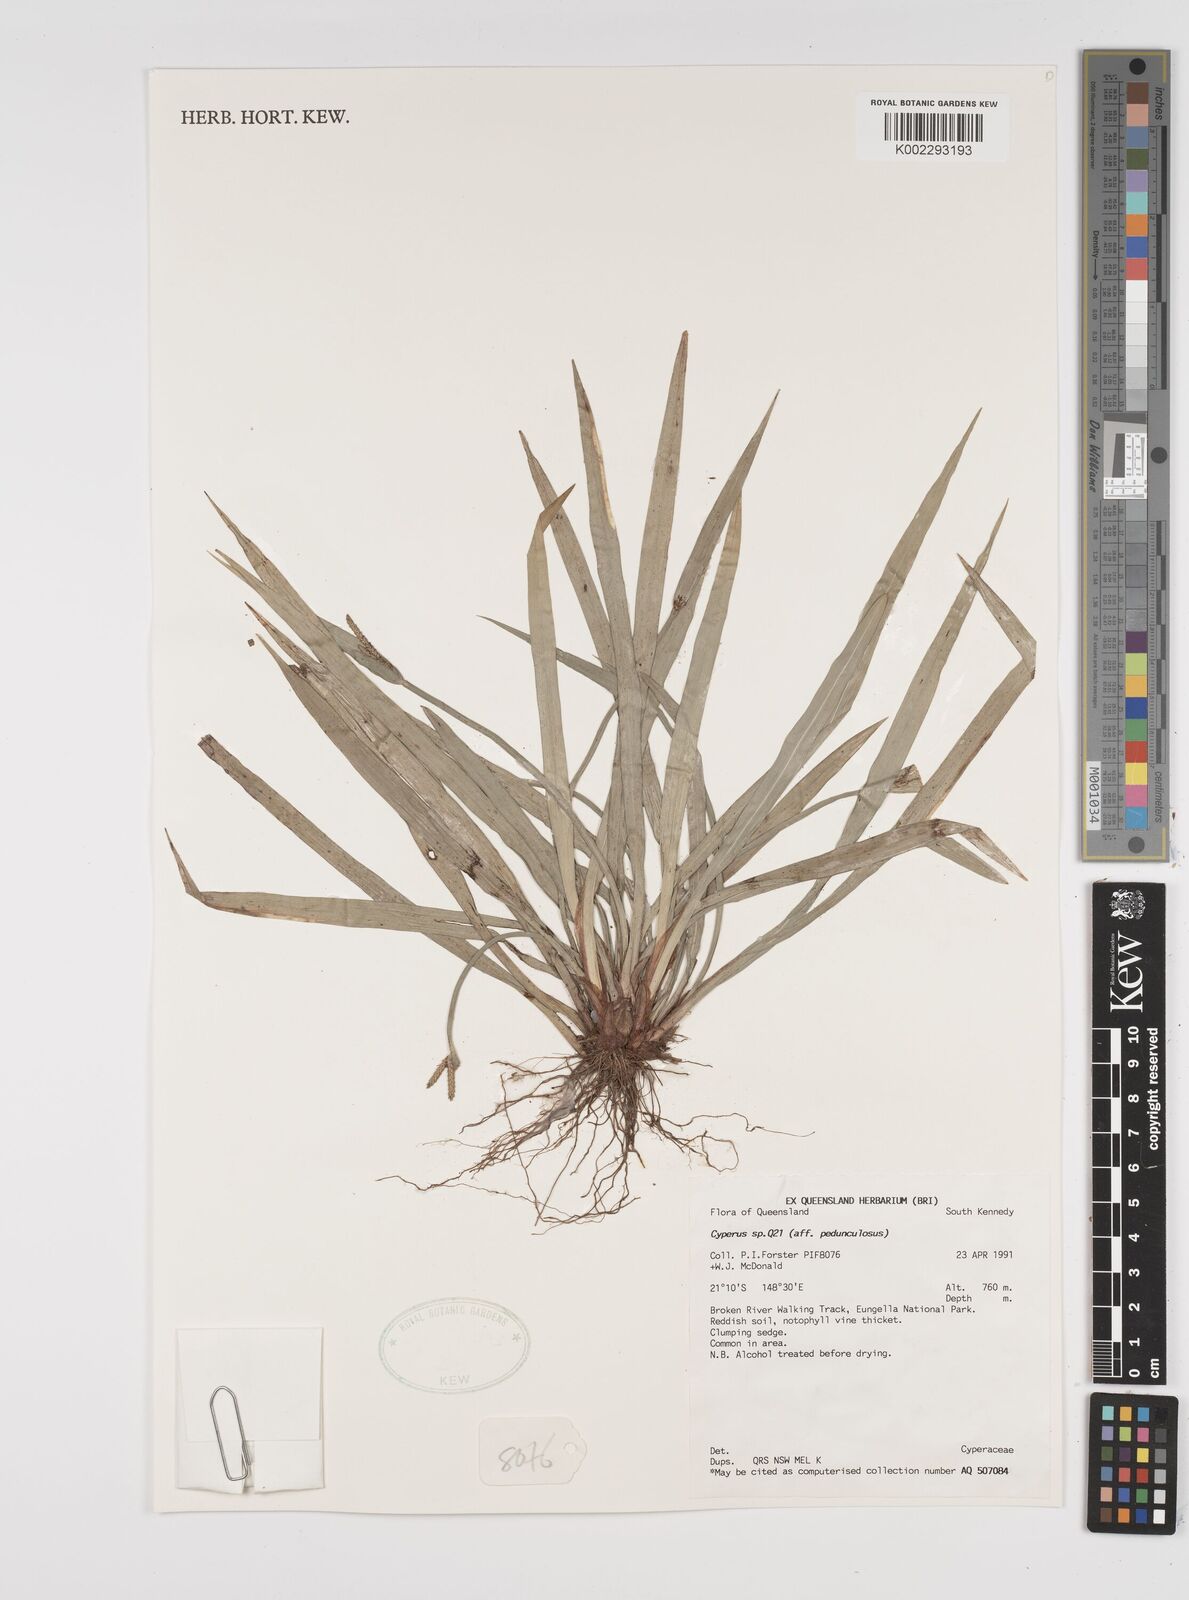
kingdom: Plantae
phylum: Tracheophyta
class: Liliopsida
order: Poales
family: Cyperaceae
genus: Cyperus
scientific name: Cyperus pedunculosus
